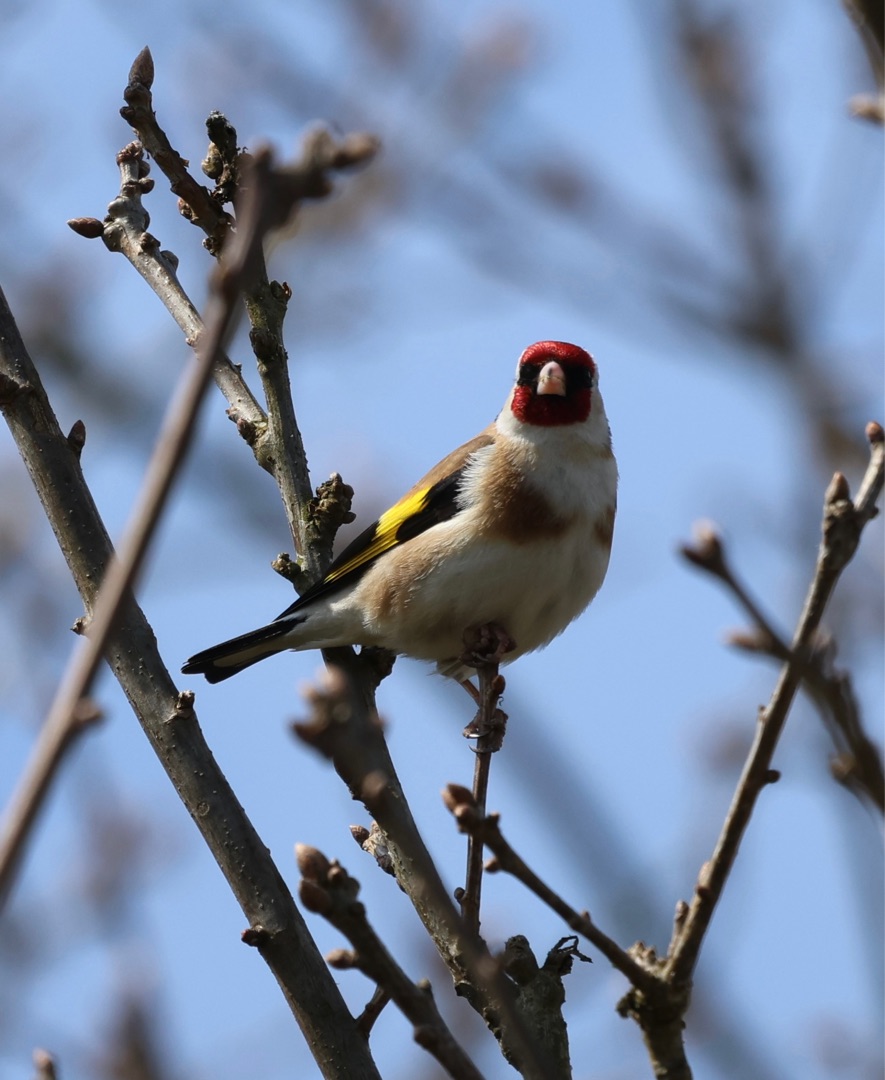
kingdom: Animalia
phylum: Chordata
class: Aves
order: Passeriformes
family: Fringillidae
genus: Carduelis
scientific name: Carduelis carduelis
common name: Stillits
